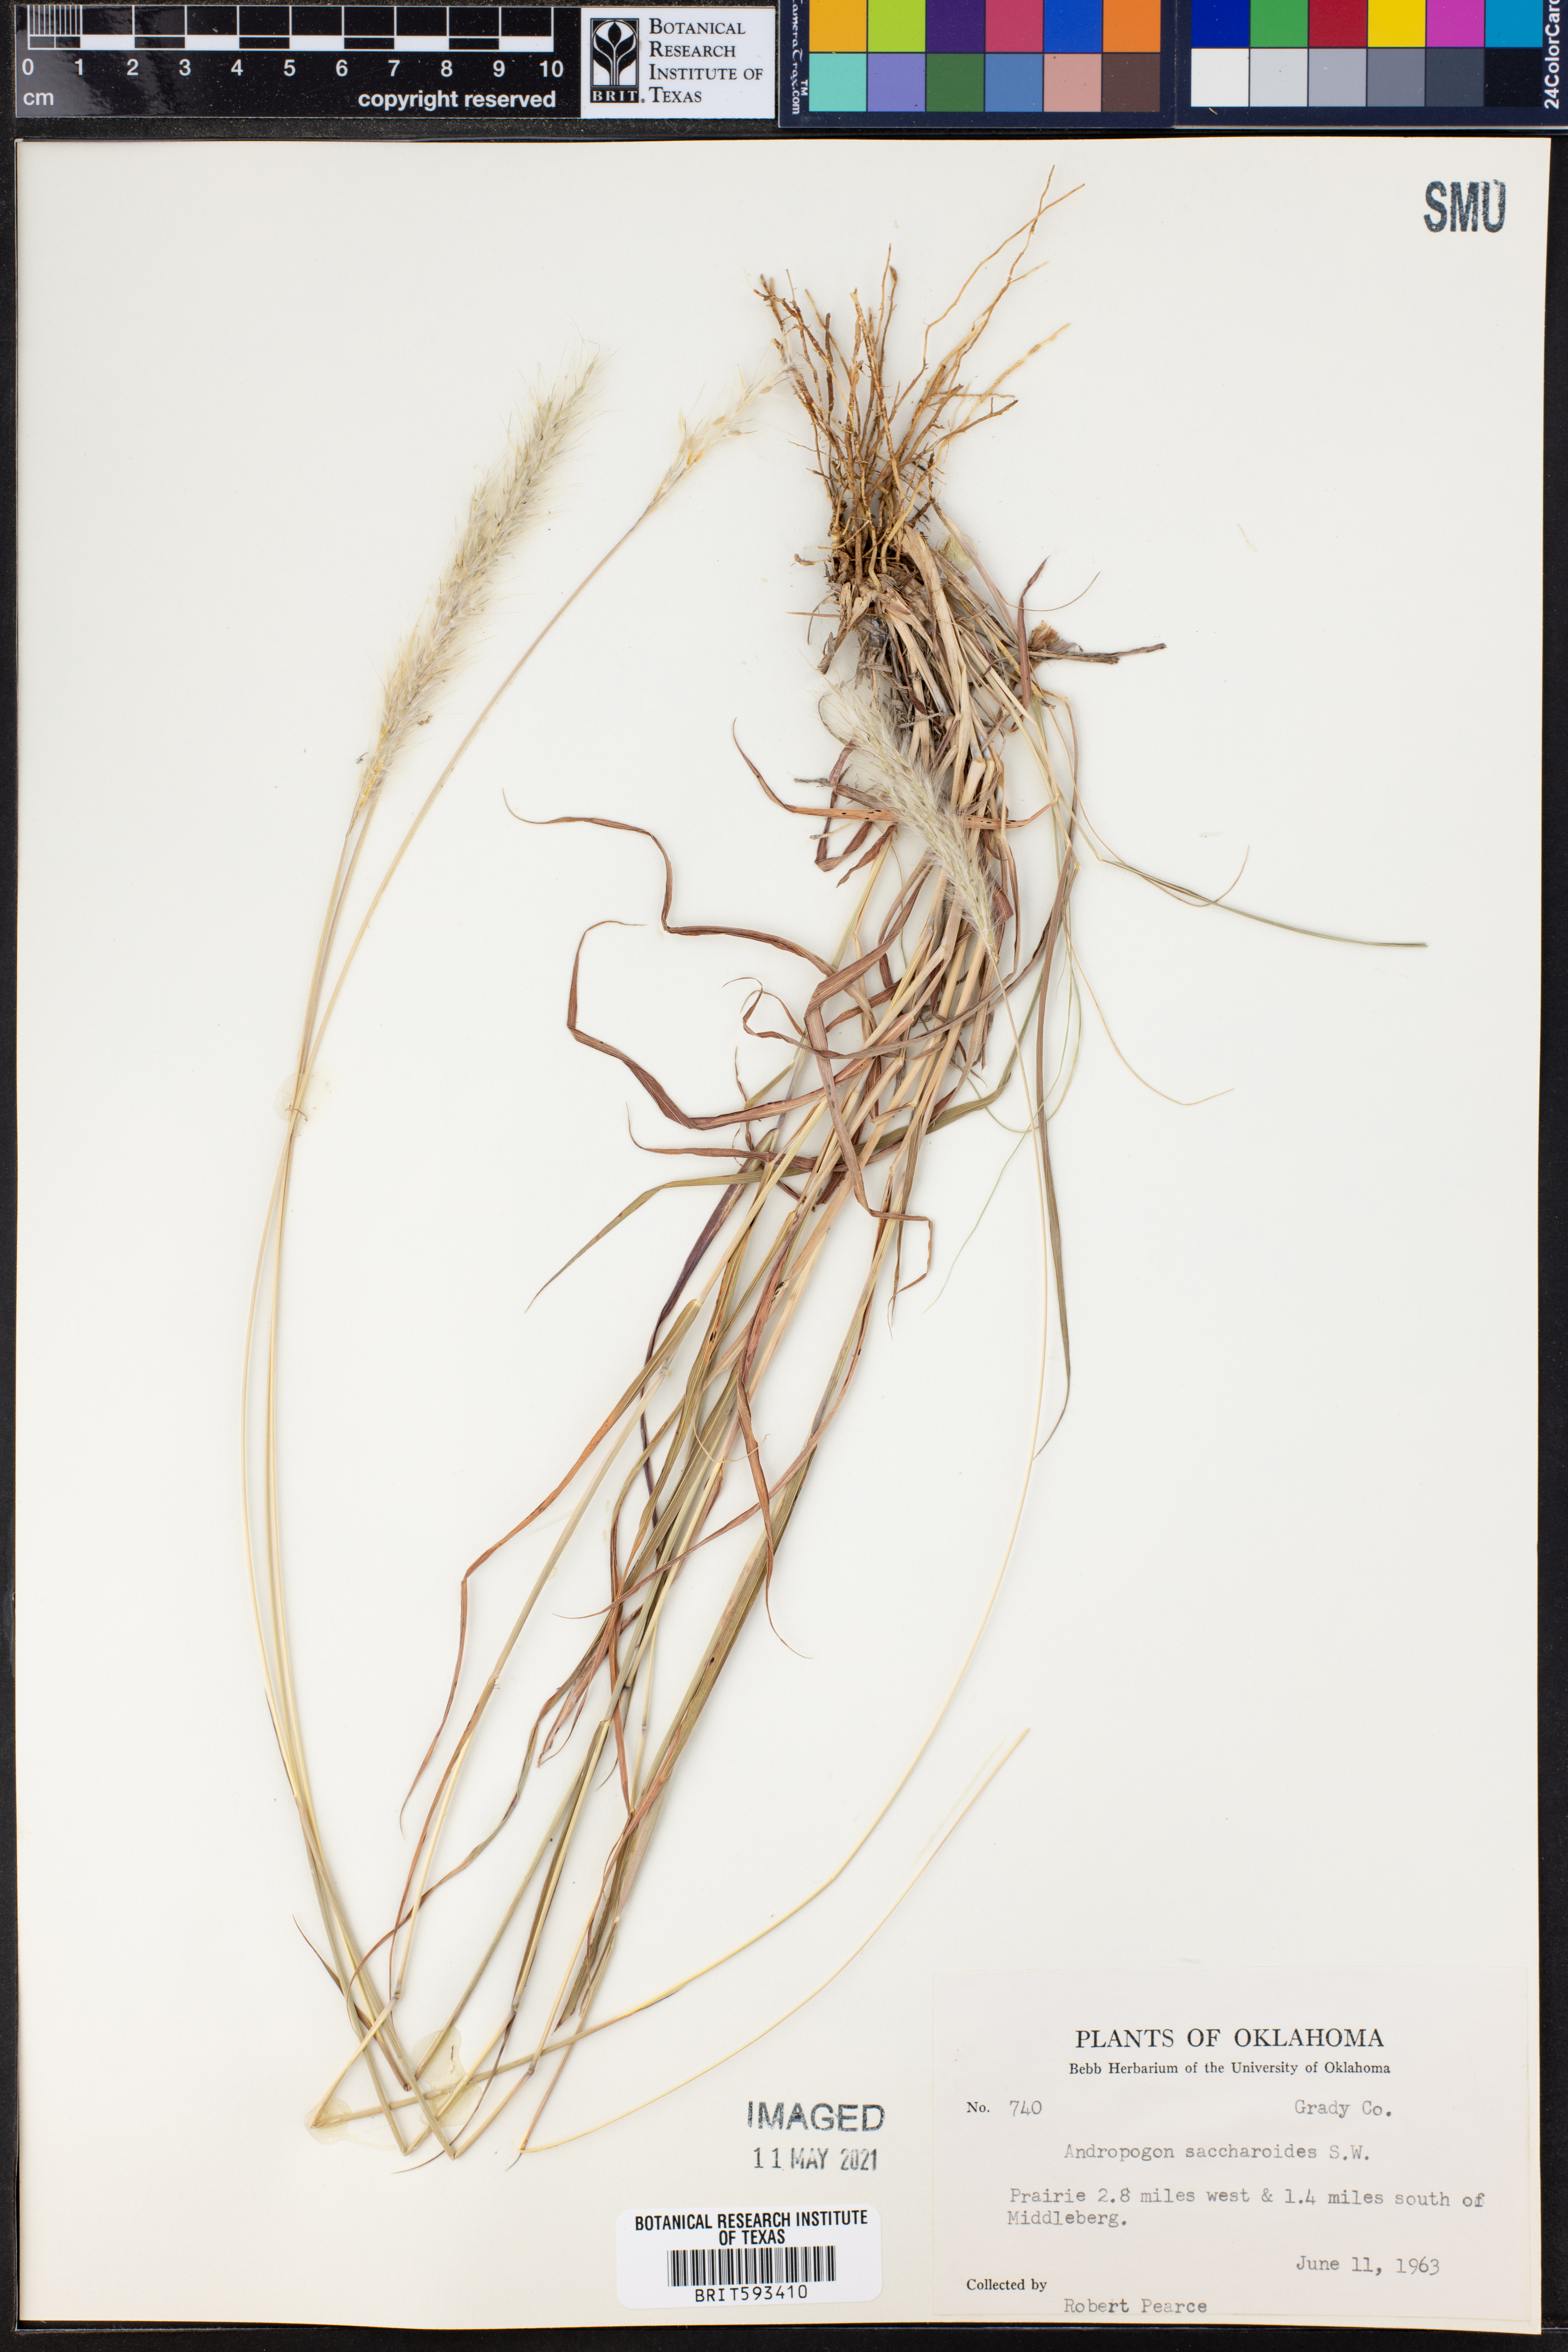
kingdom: Plantae
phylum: Tracheophyta
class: Liliopsida
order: Poales
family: Poaceae
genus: Bothriochloa
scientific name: Bothriochloa saccharoides
